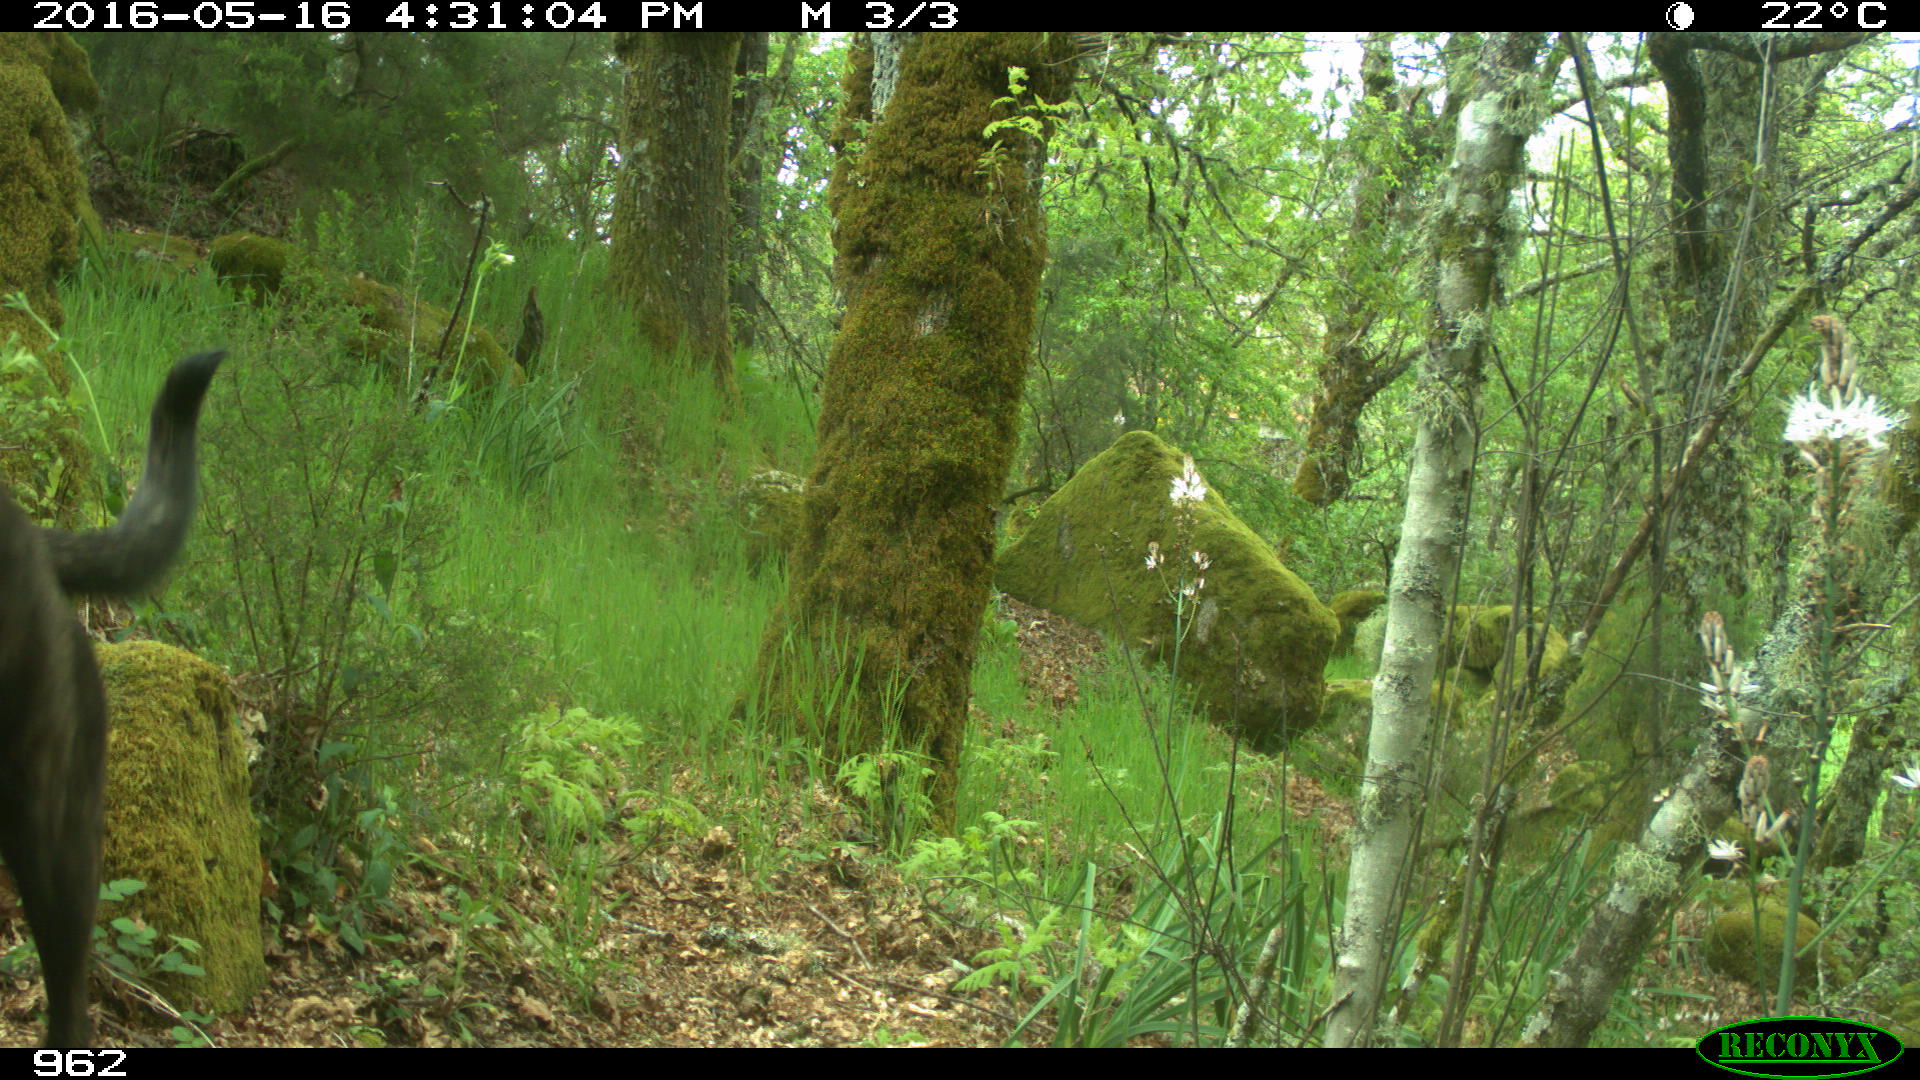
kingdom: Animalia
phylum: Chordata
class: Mammalia
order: Carnivora
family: Canidae
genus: Canis
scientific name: Canis lupus
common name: Gray wolf
